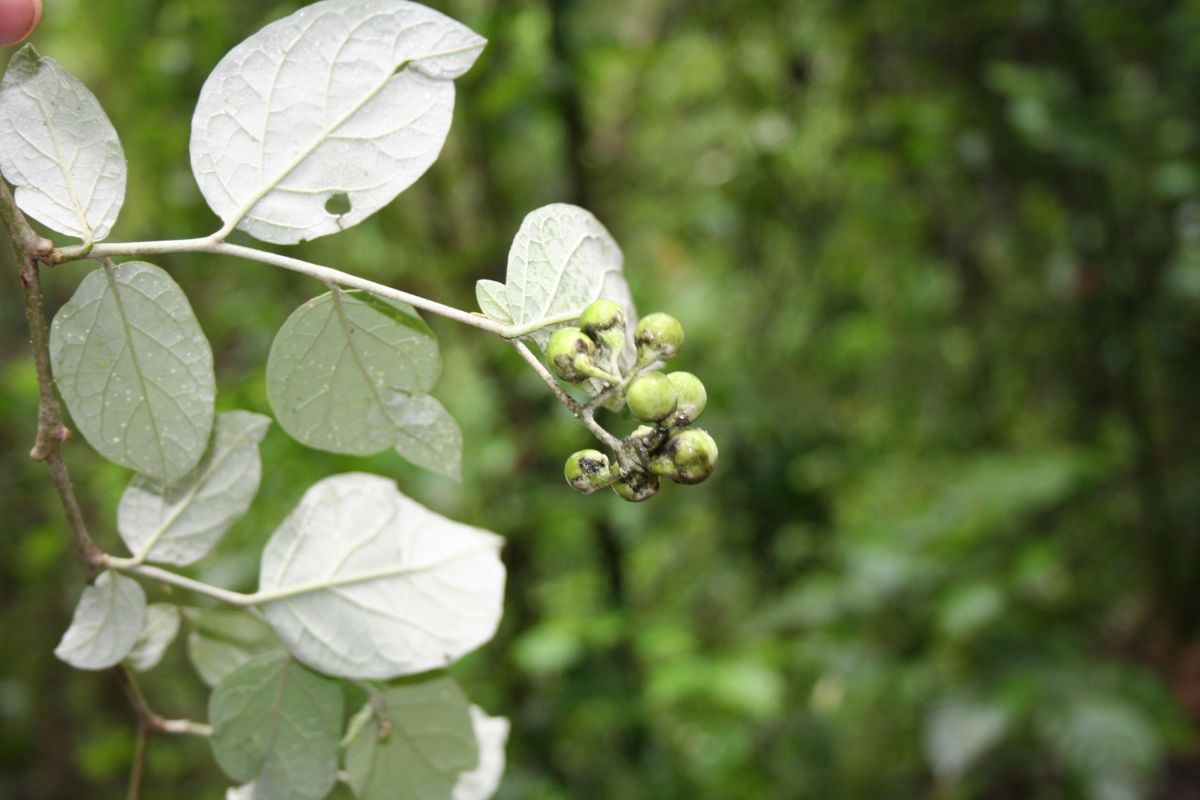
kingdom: Plantae
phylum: Tracheophyta
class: Magnoliopsida
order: Solanales
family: Solanaceae
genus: Solanum
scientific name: Solanum schlechtendalianum
